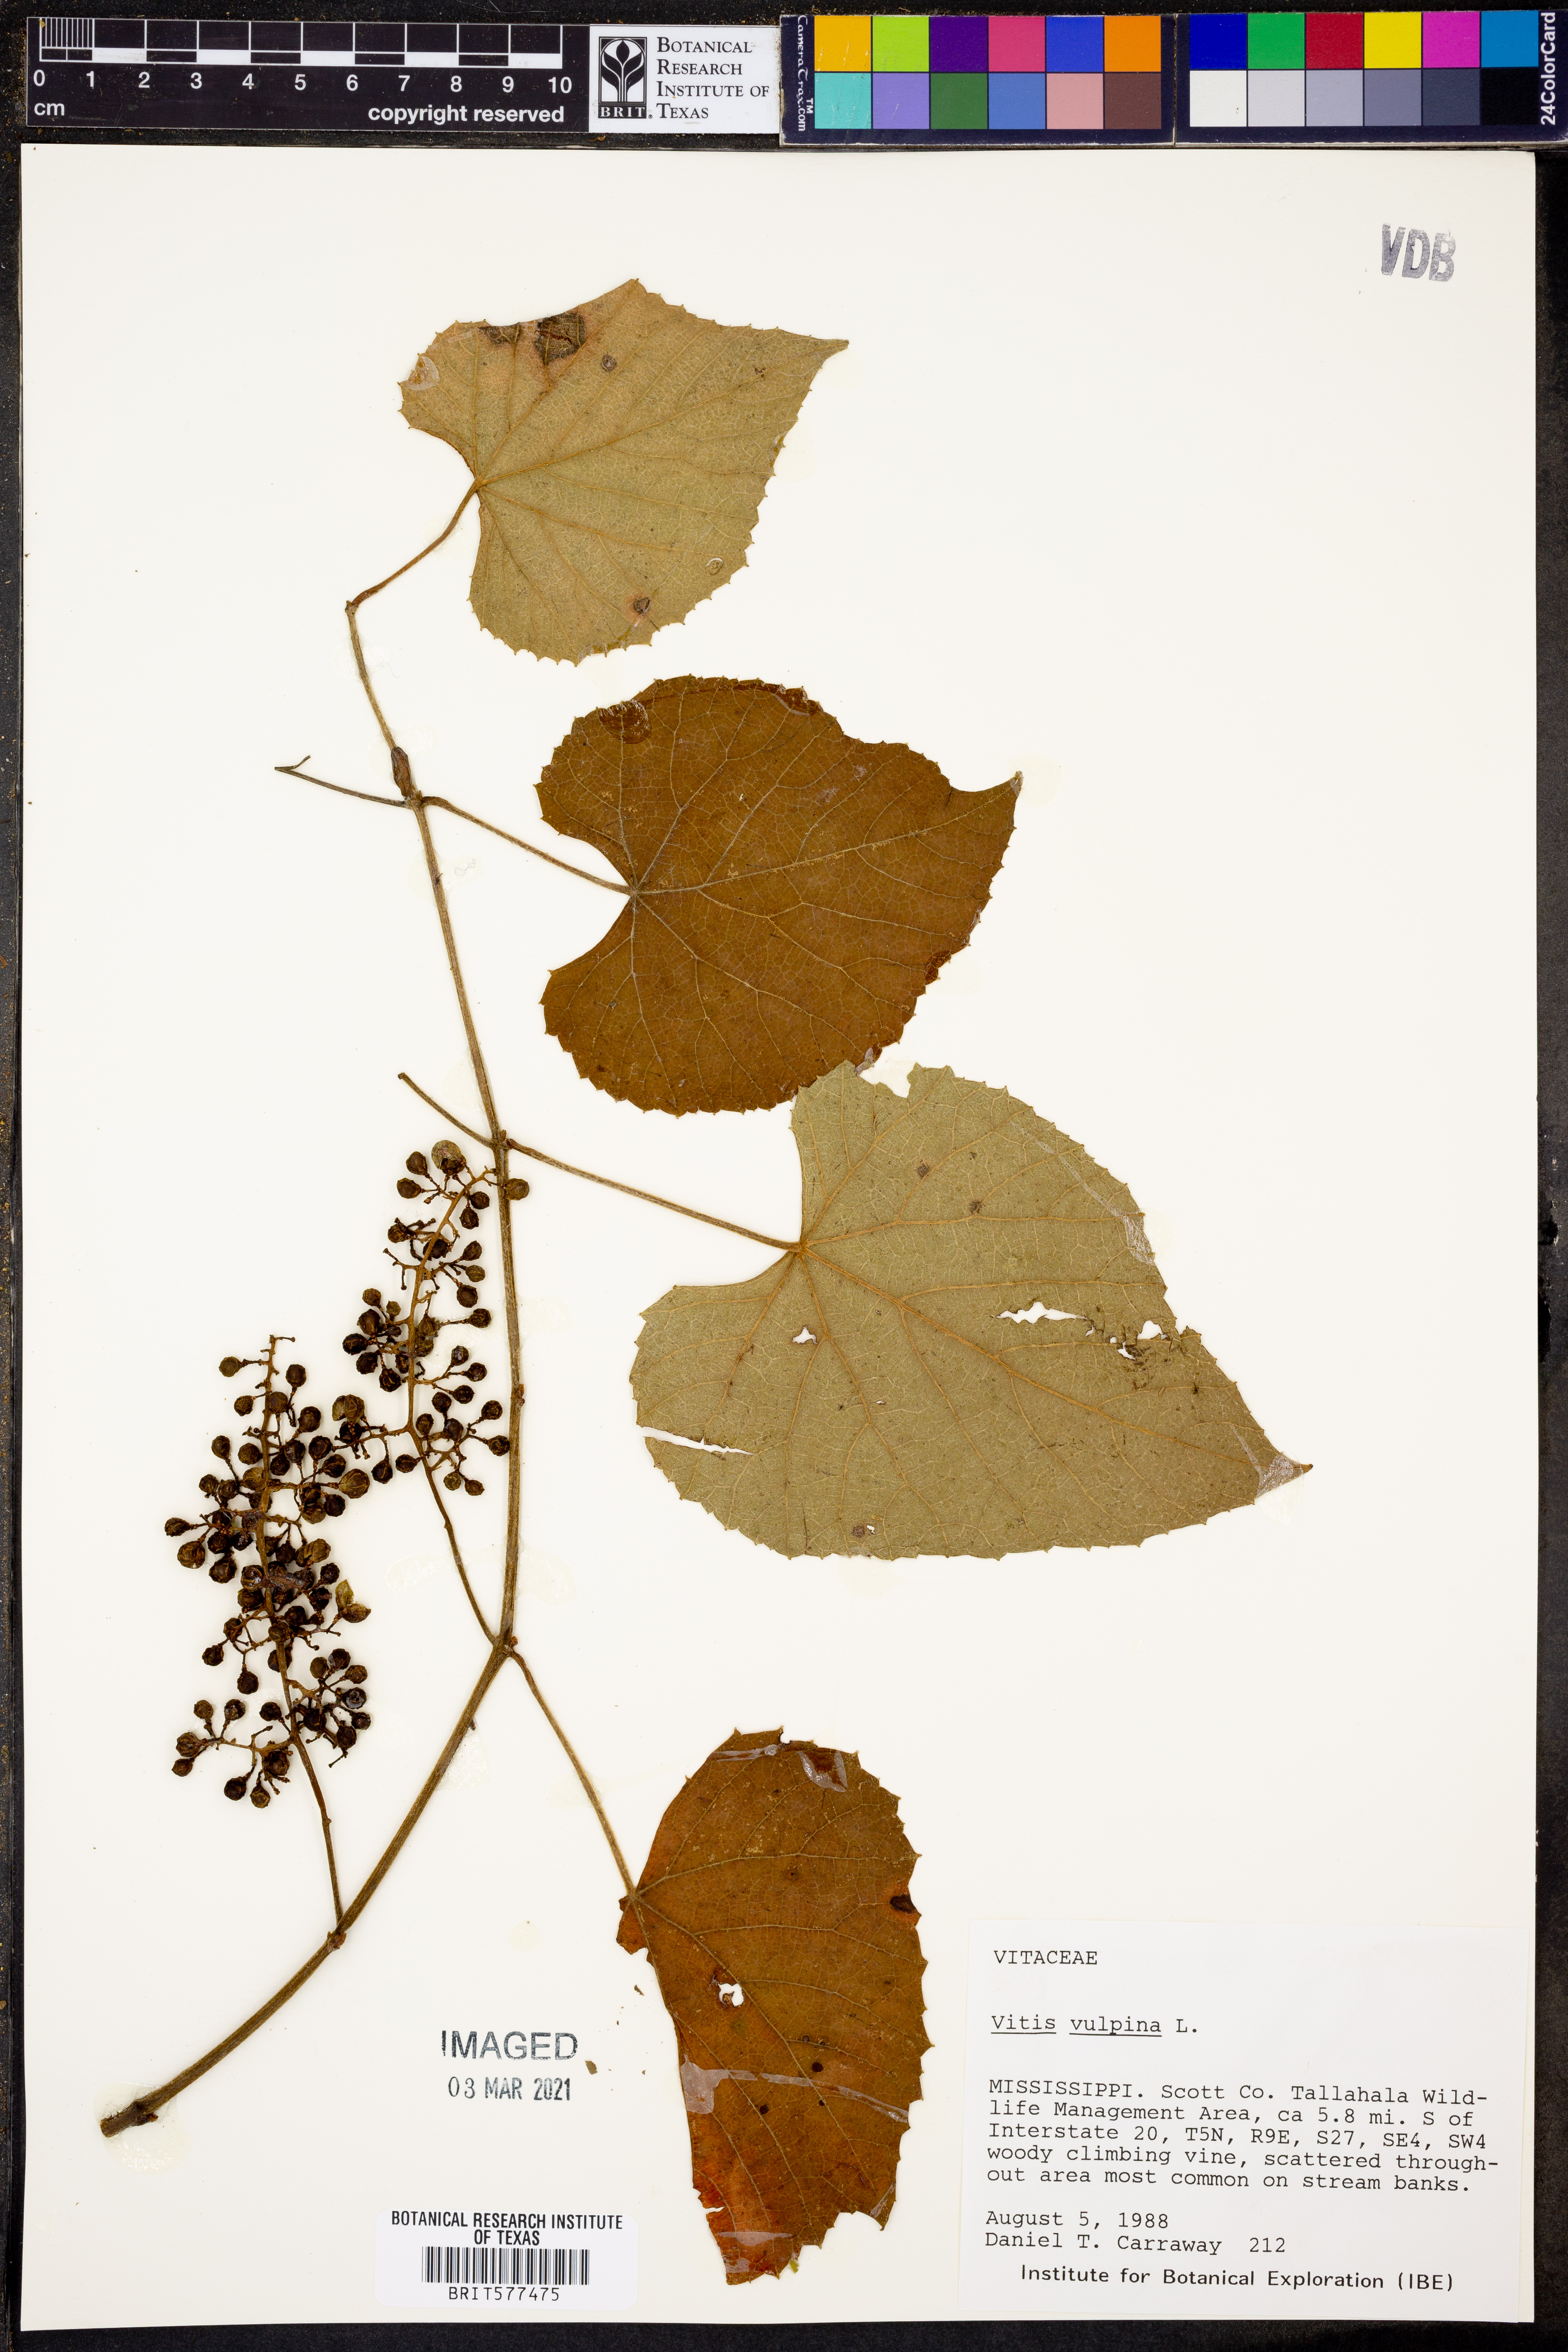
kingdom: Plantae
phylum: Tracheophyta
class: Magnoliopsida
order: Vitales
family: Vitaceae
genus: Vitis
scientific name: Vitis vulpina
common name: Frost grape
